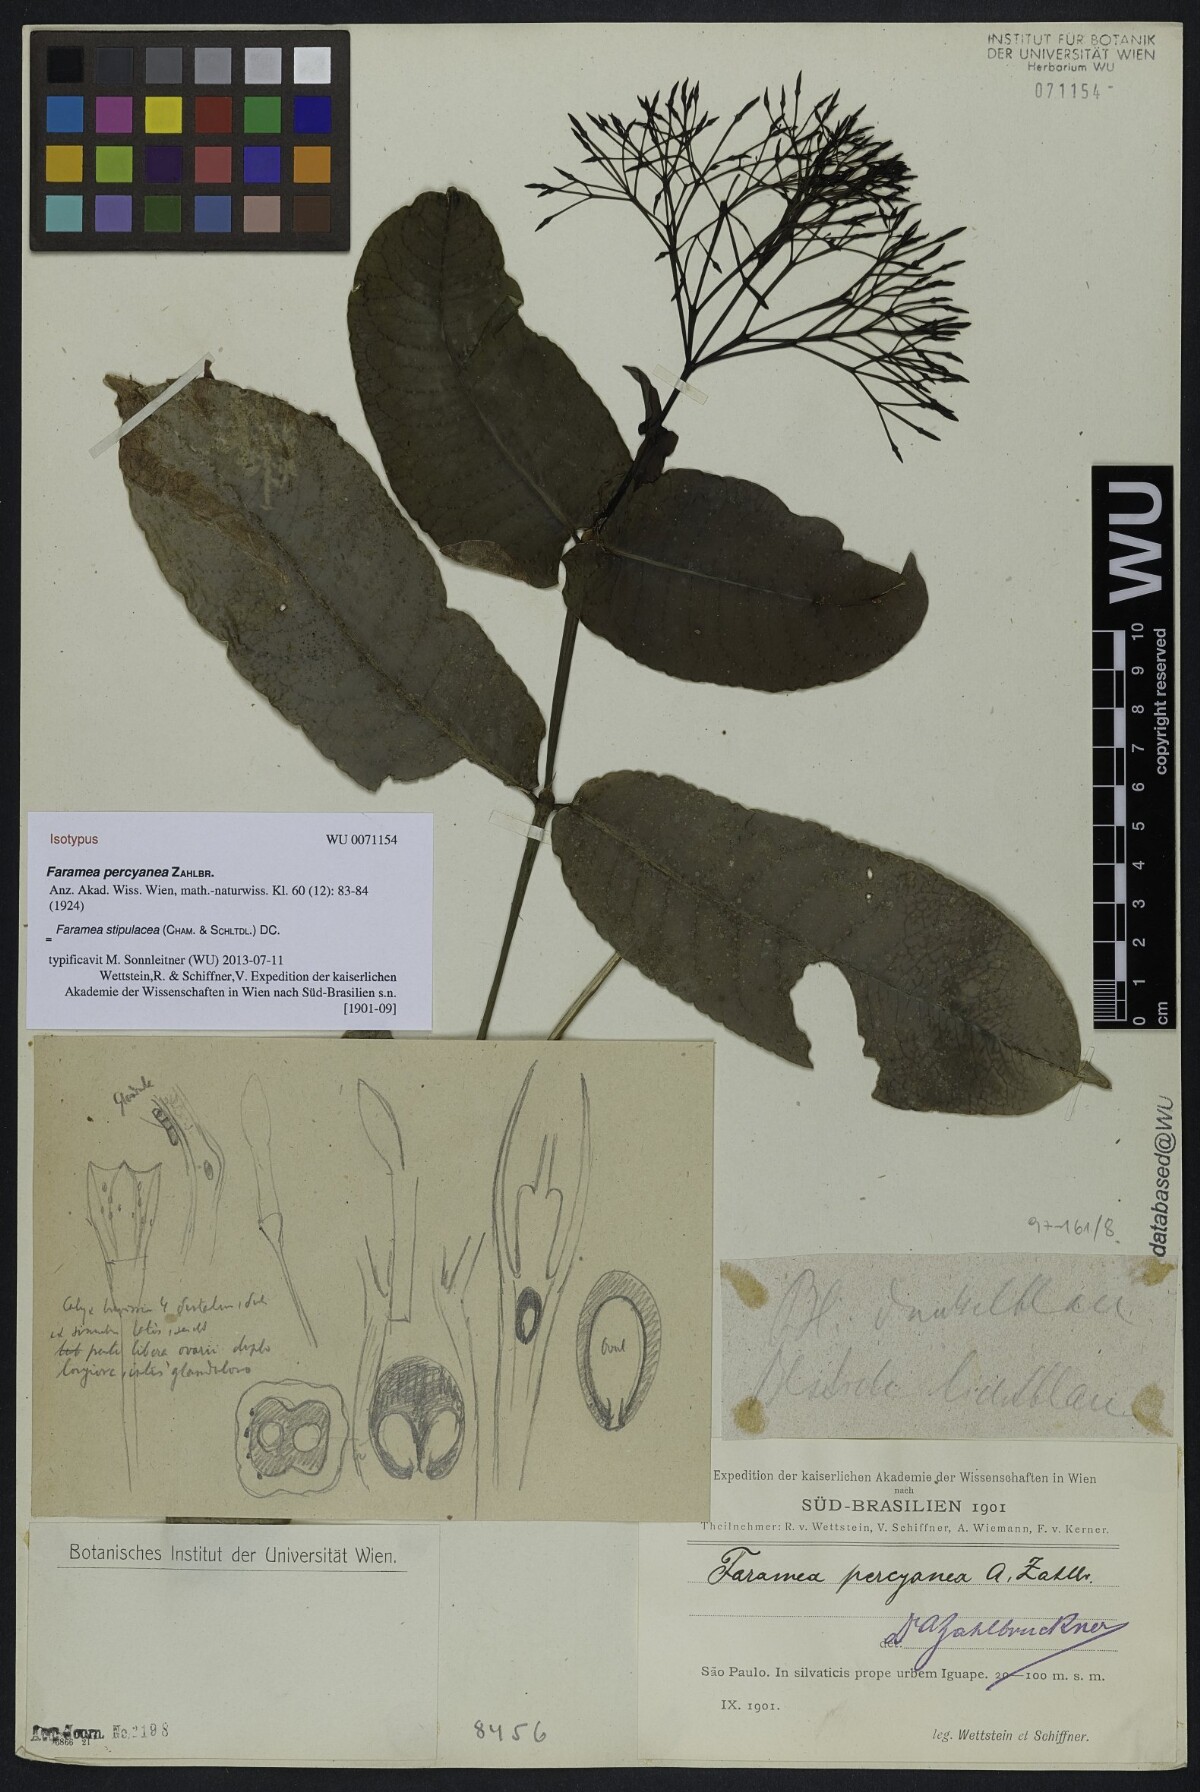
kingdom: Plantae
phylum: Tracheophyta
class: Magnoliopsida
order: Gentianales
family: Rubiaceae
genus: Faramea
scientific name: Faramea stipulacea
